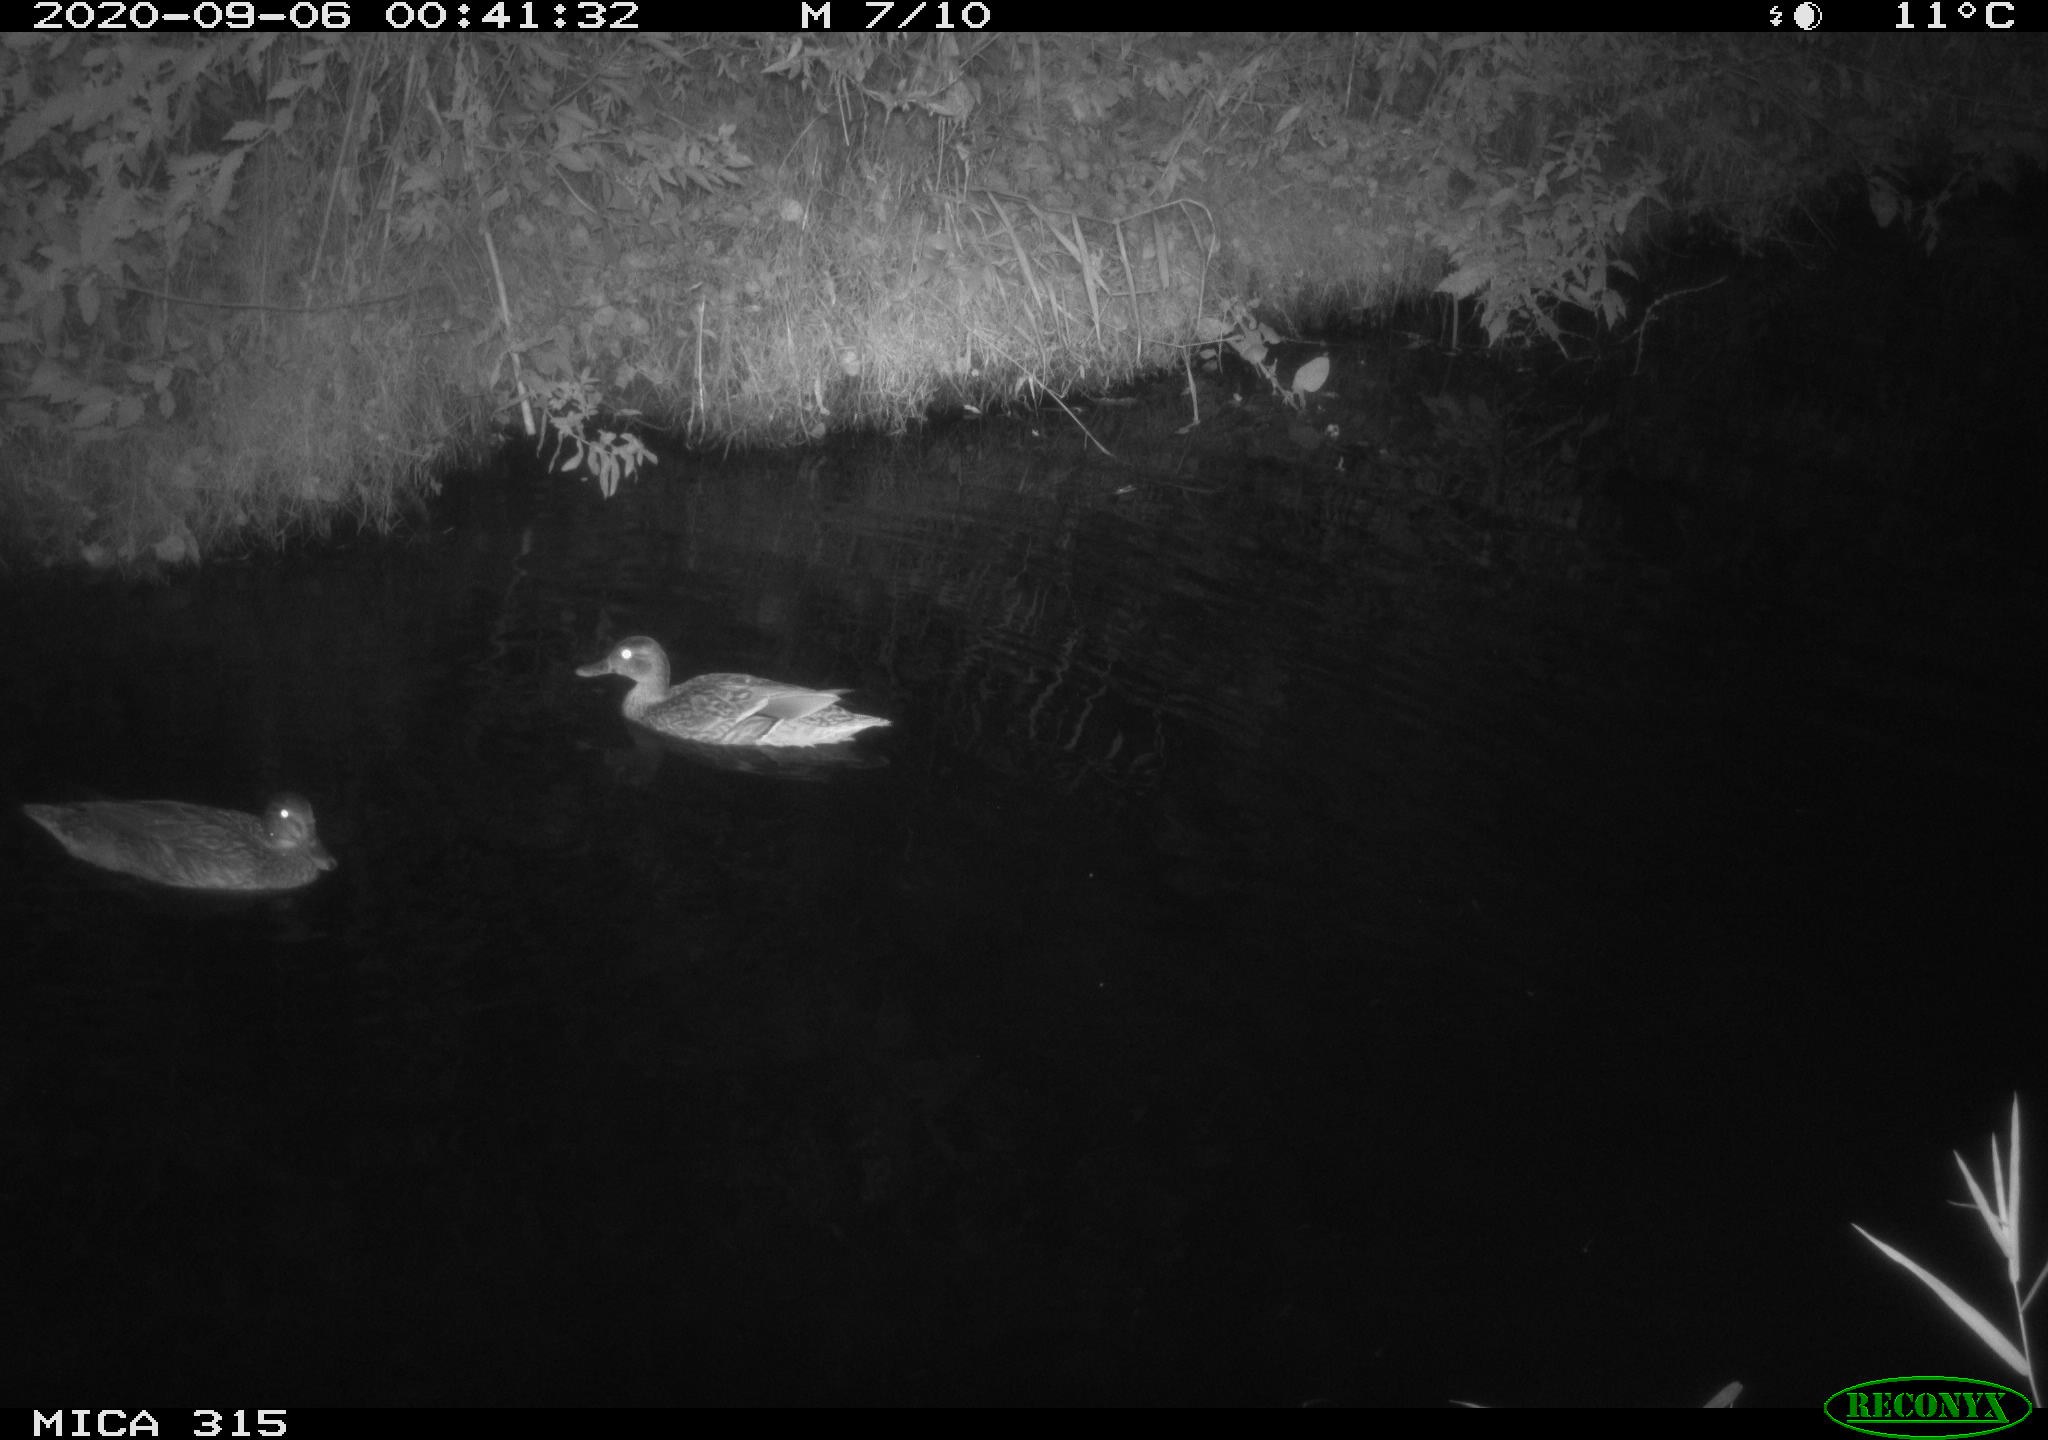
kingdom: Animalia
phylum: Chordata
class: Aves
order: Anseriformes
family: Anatidae
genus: Anas
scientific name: Anas platyrhynchos
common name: Mallard
